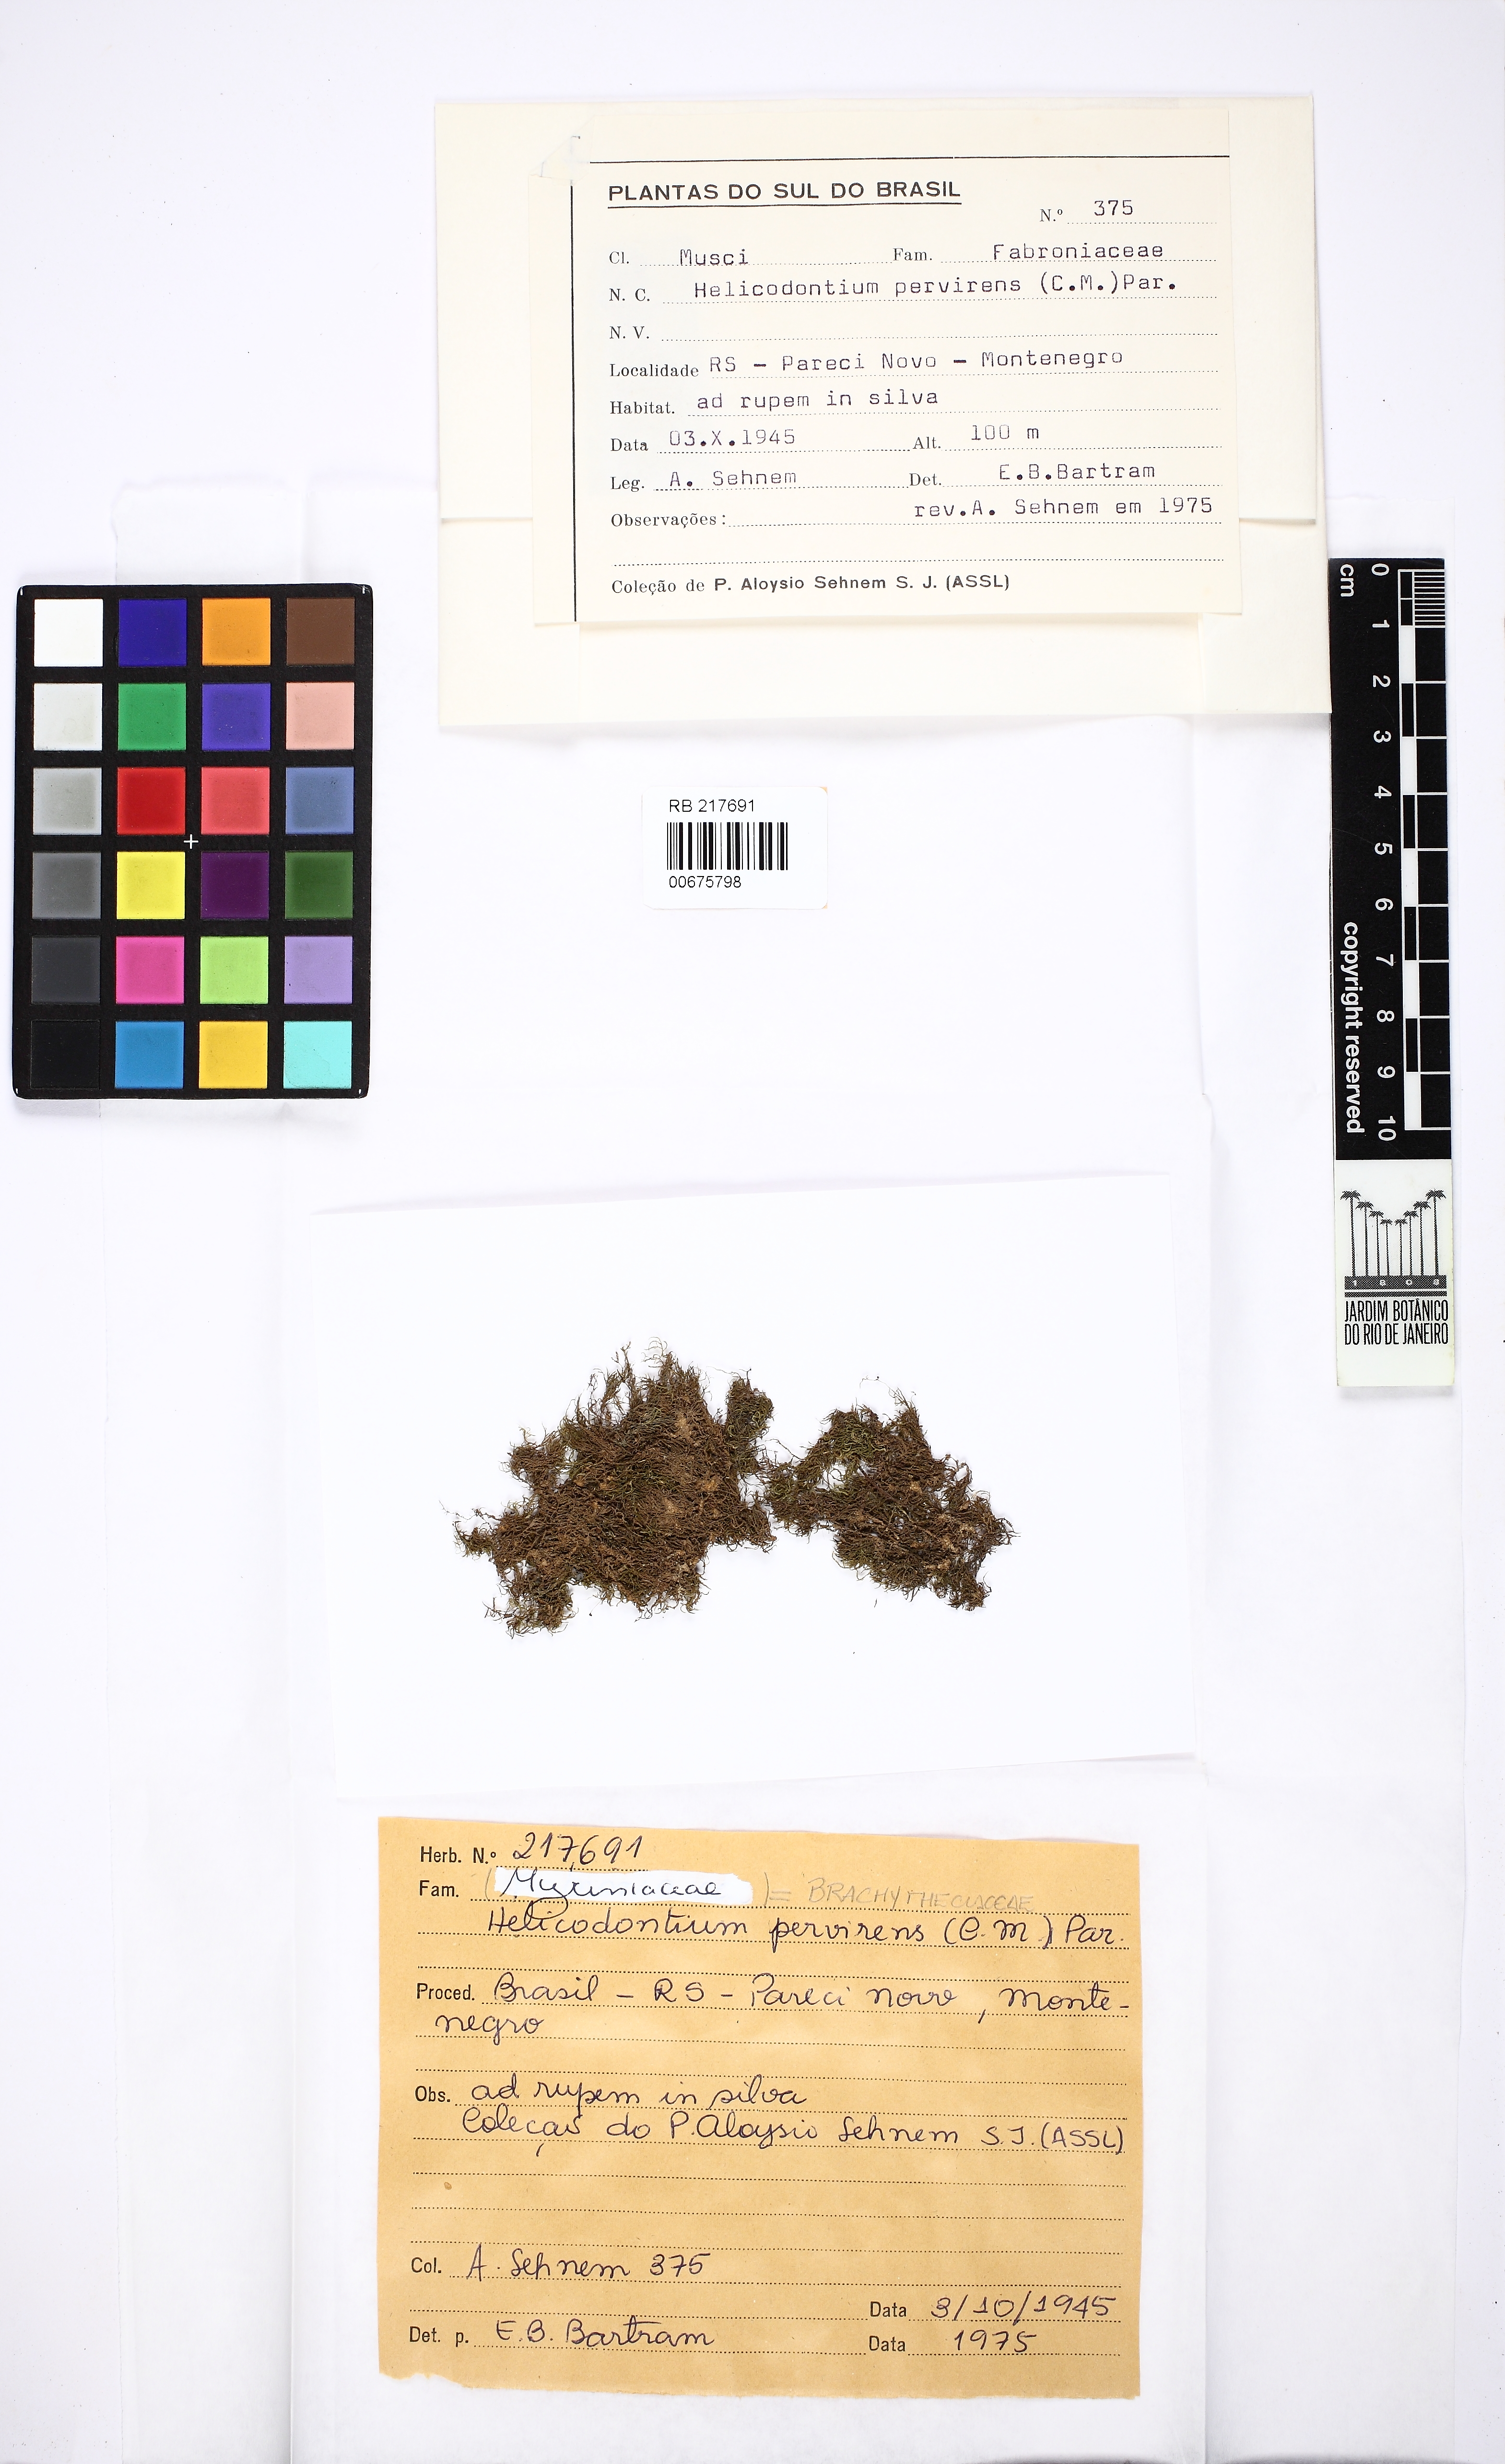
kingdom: Plantae
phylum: Bryophyta
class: Bryopsida
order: Hypnales
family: Brachytheciaceae
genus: Helicodontium
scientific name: Helicodontium capillare
